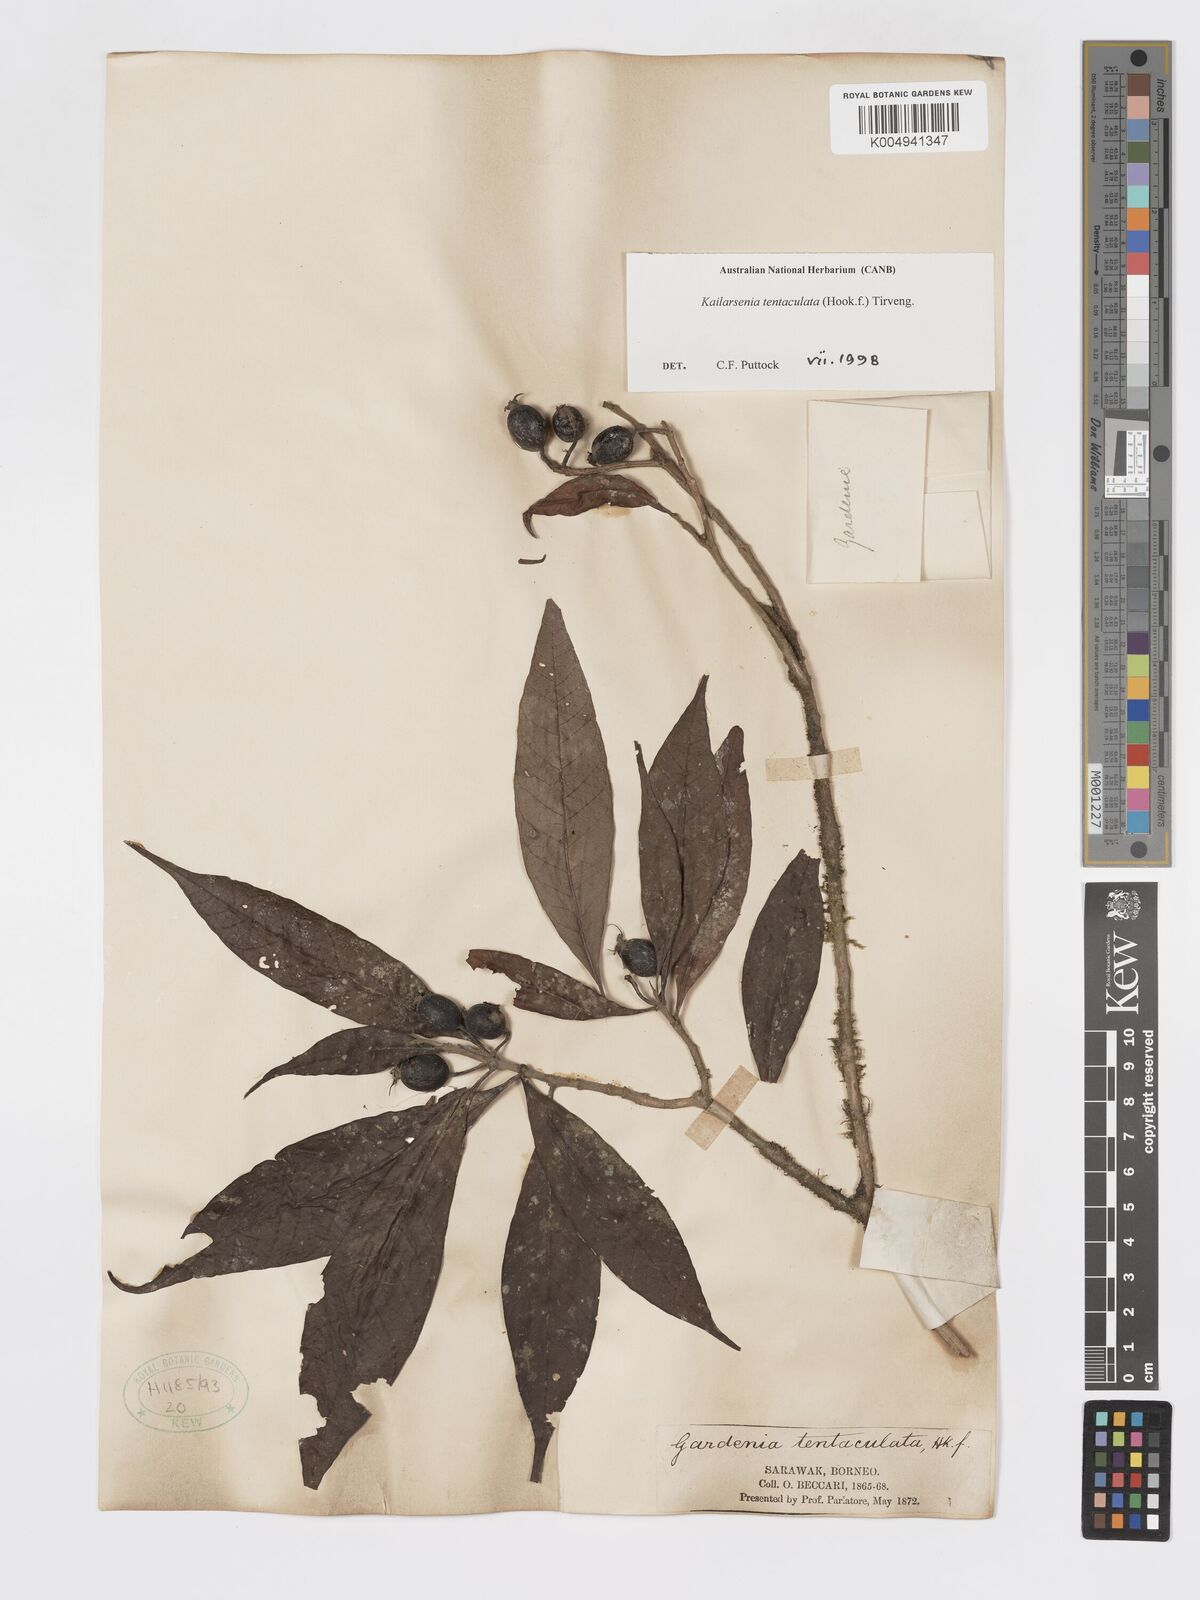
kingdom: Plantae
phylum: Tracheophyta
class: Magnoliopsida
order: Gentianales
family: Rubiaceae
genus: Kailarsenia
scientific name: Kailarsenia tentaculata
